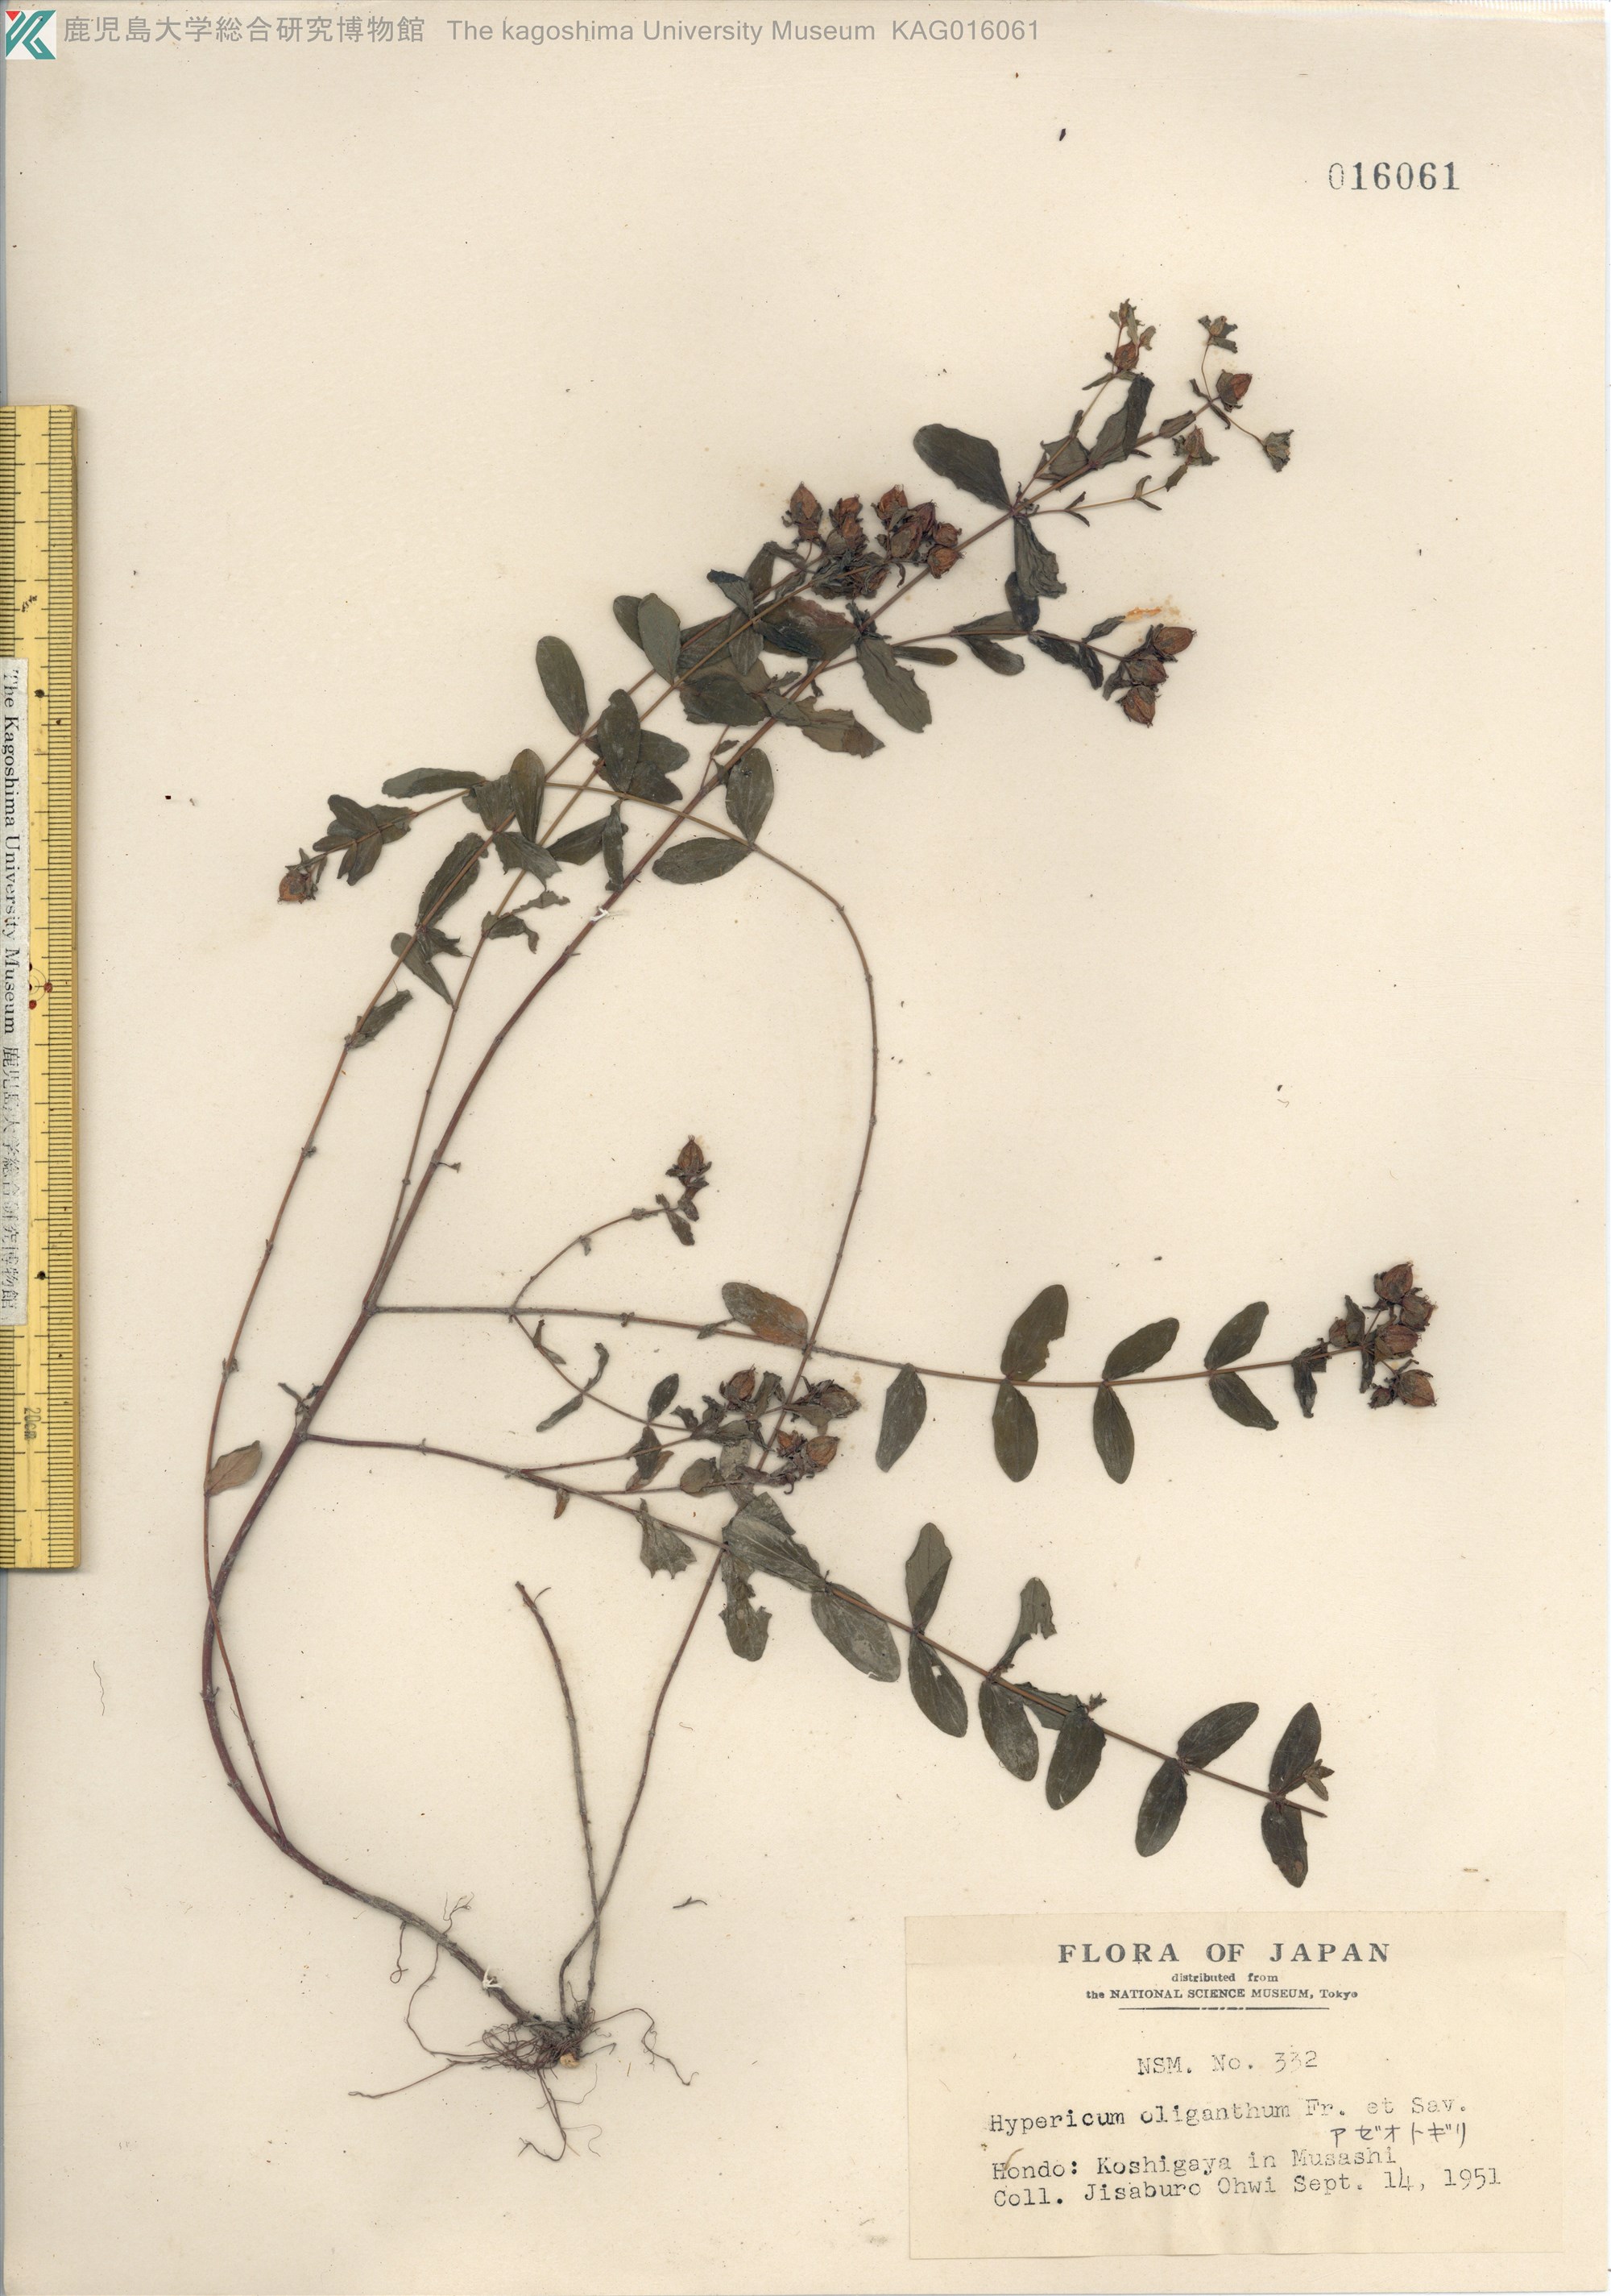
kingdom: Plantae
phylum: Tracheophyta
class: Magnoliopsida
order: Malpighiales
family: Hypericaceae
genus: Hypericum
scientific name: Hypericum oliganthum
